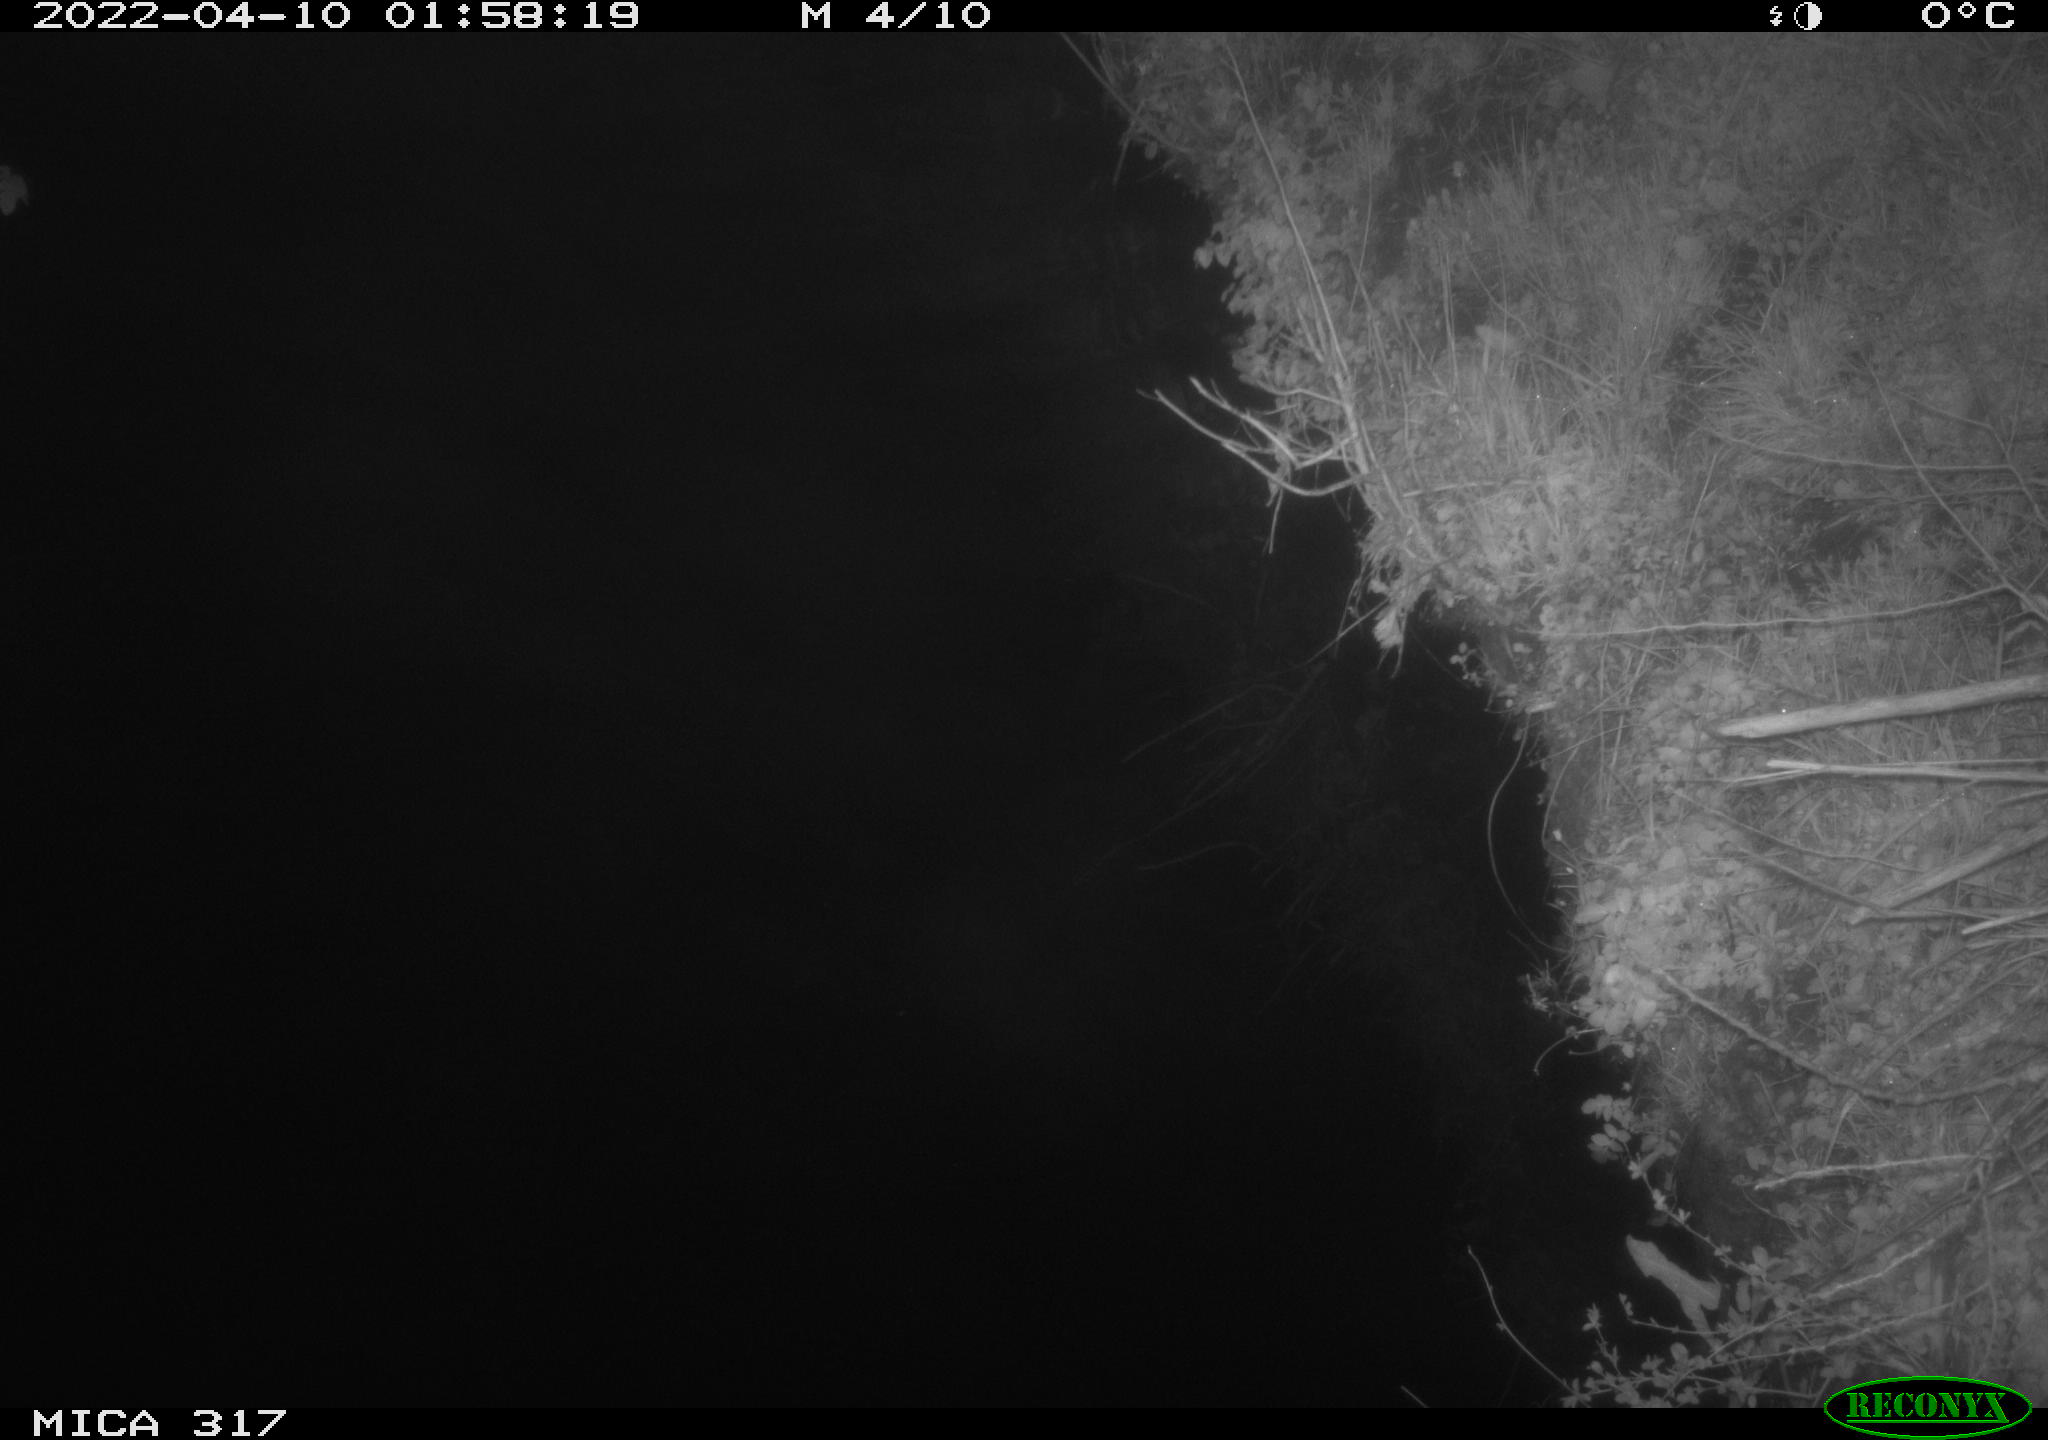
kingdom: Animalia
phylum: Chordata
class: Aves
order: Anseriformes
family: Anatidae
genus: Anas
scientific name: Anas platyrhynchos
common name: Mallard
